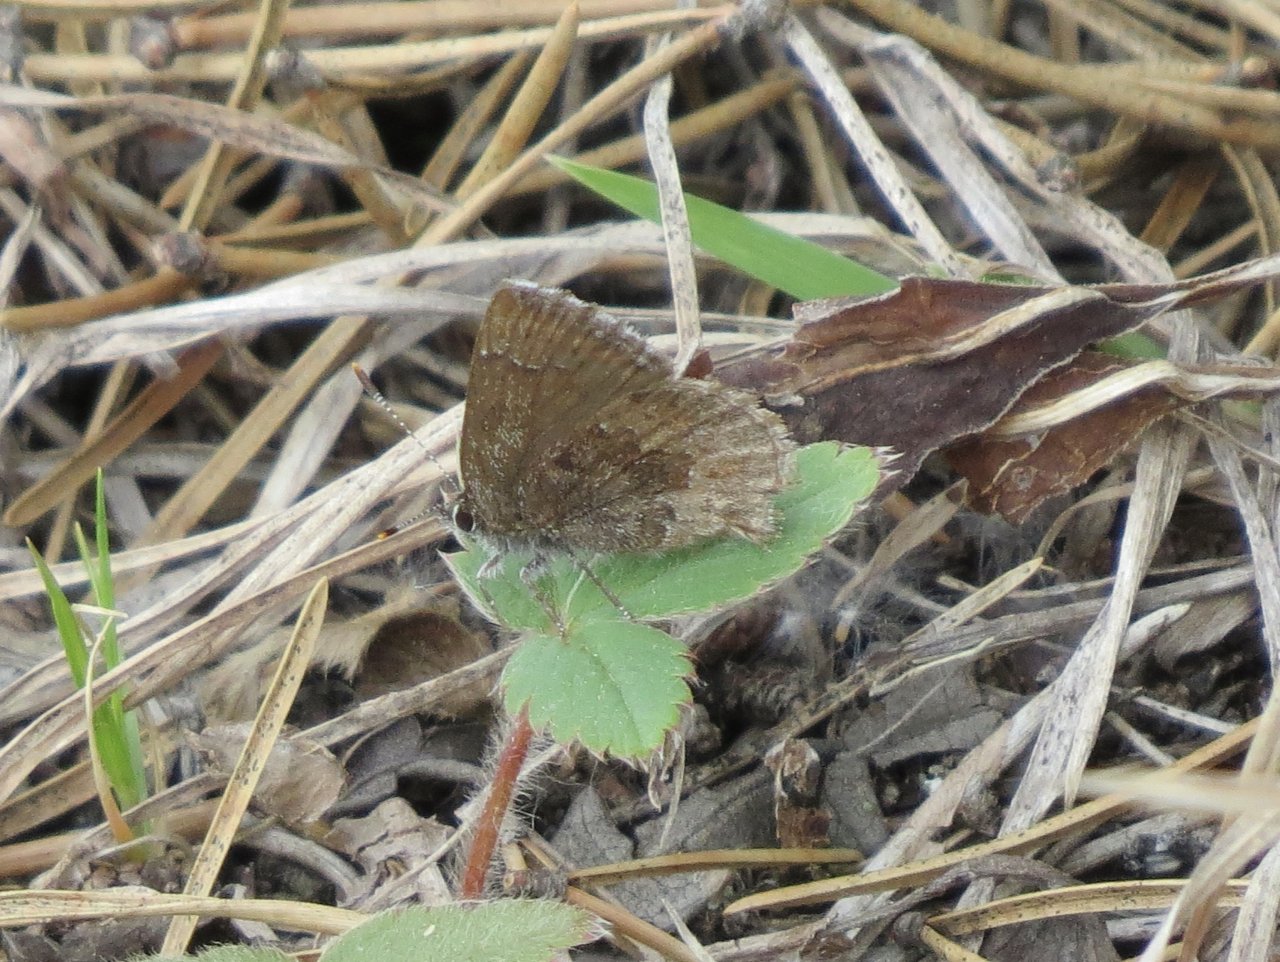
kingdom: Animalia
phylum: Arthropoda
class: Insecta
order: Lepidoptera
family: Lycaenidae
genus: Incisalia
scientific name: Incisalia irioides
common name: Brown Elfin
